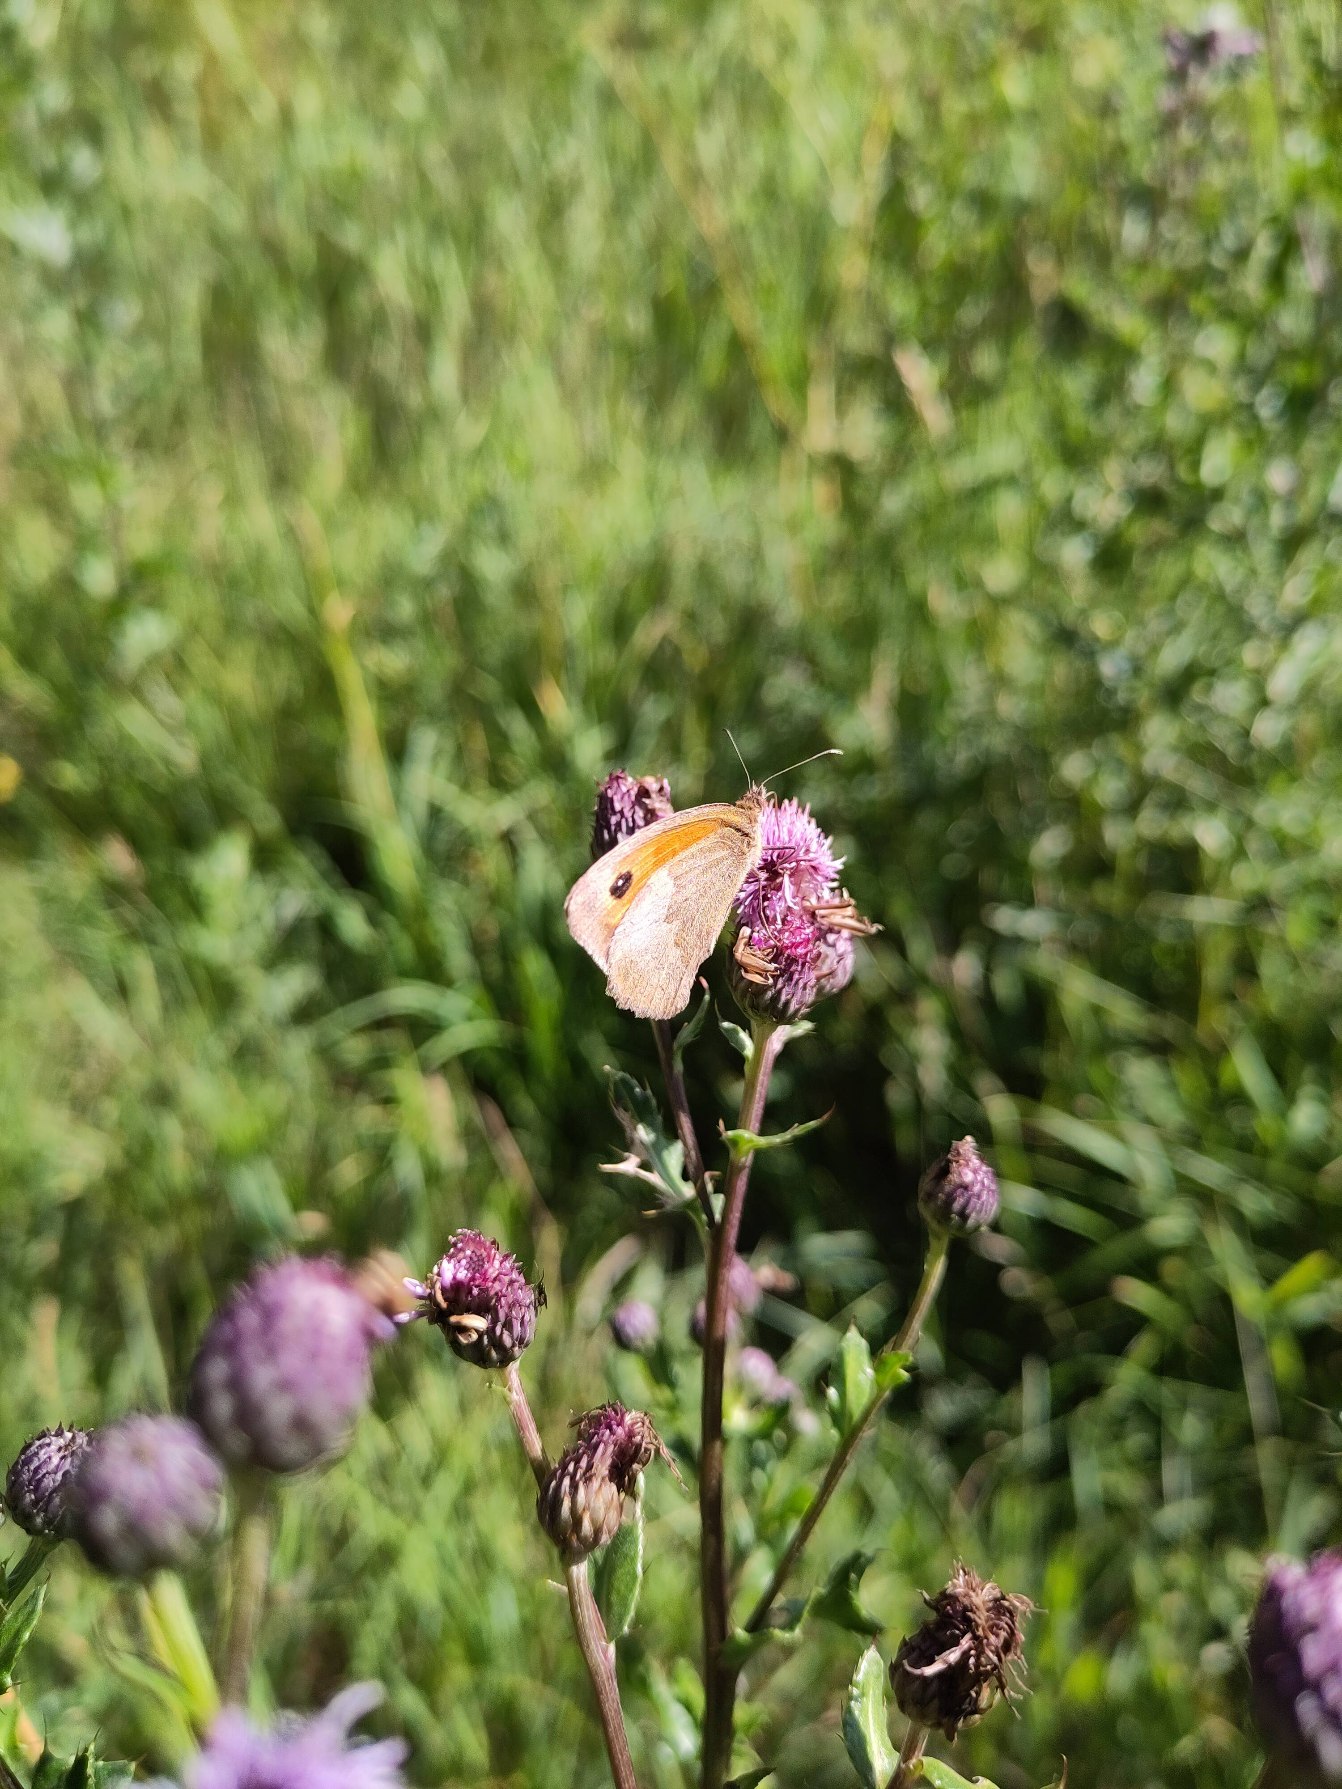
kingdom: Animalia
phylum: Arthropoda
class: Insecta
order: Lepidoptera
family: Nymphalidae
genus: Maniola
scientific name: Maniola jurtina
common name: Græsrandøje
